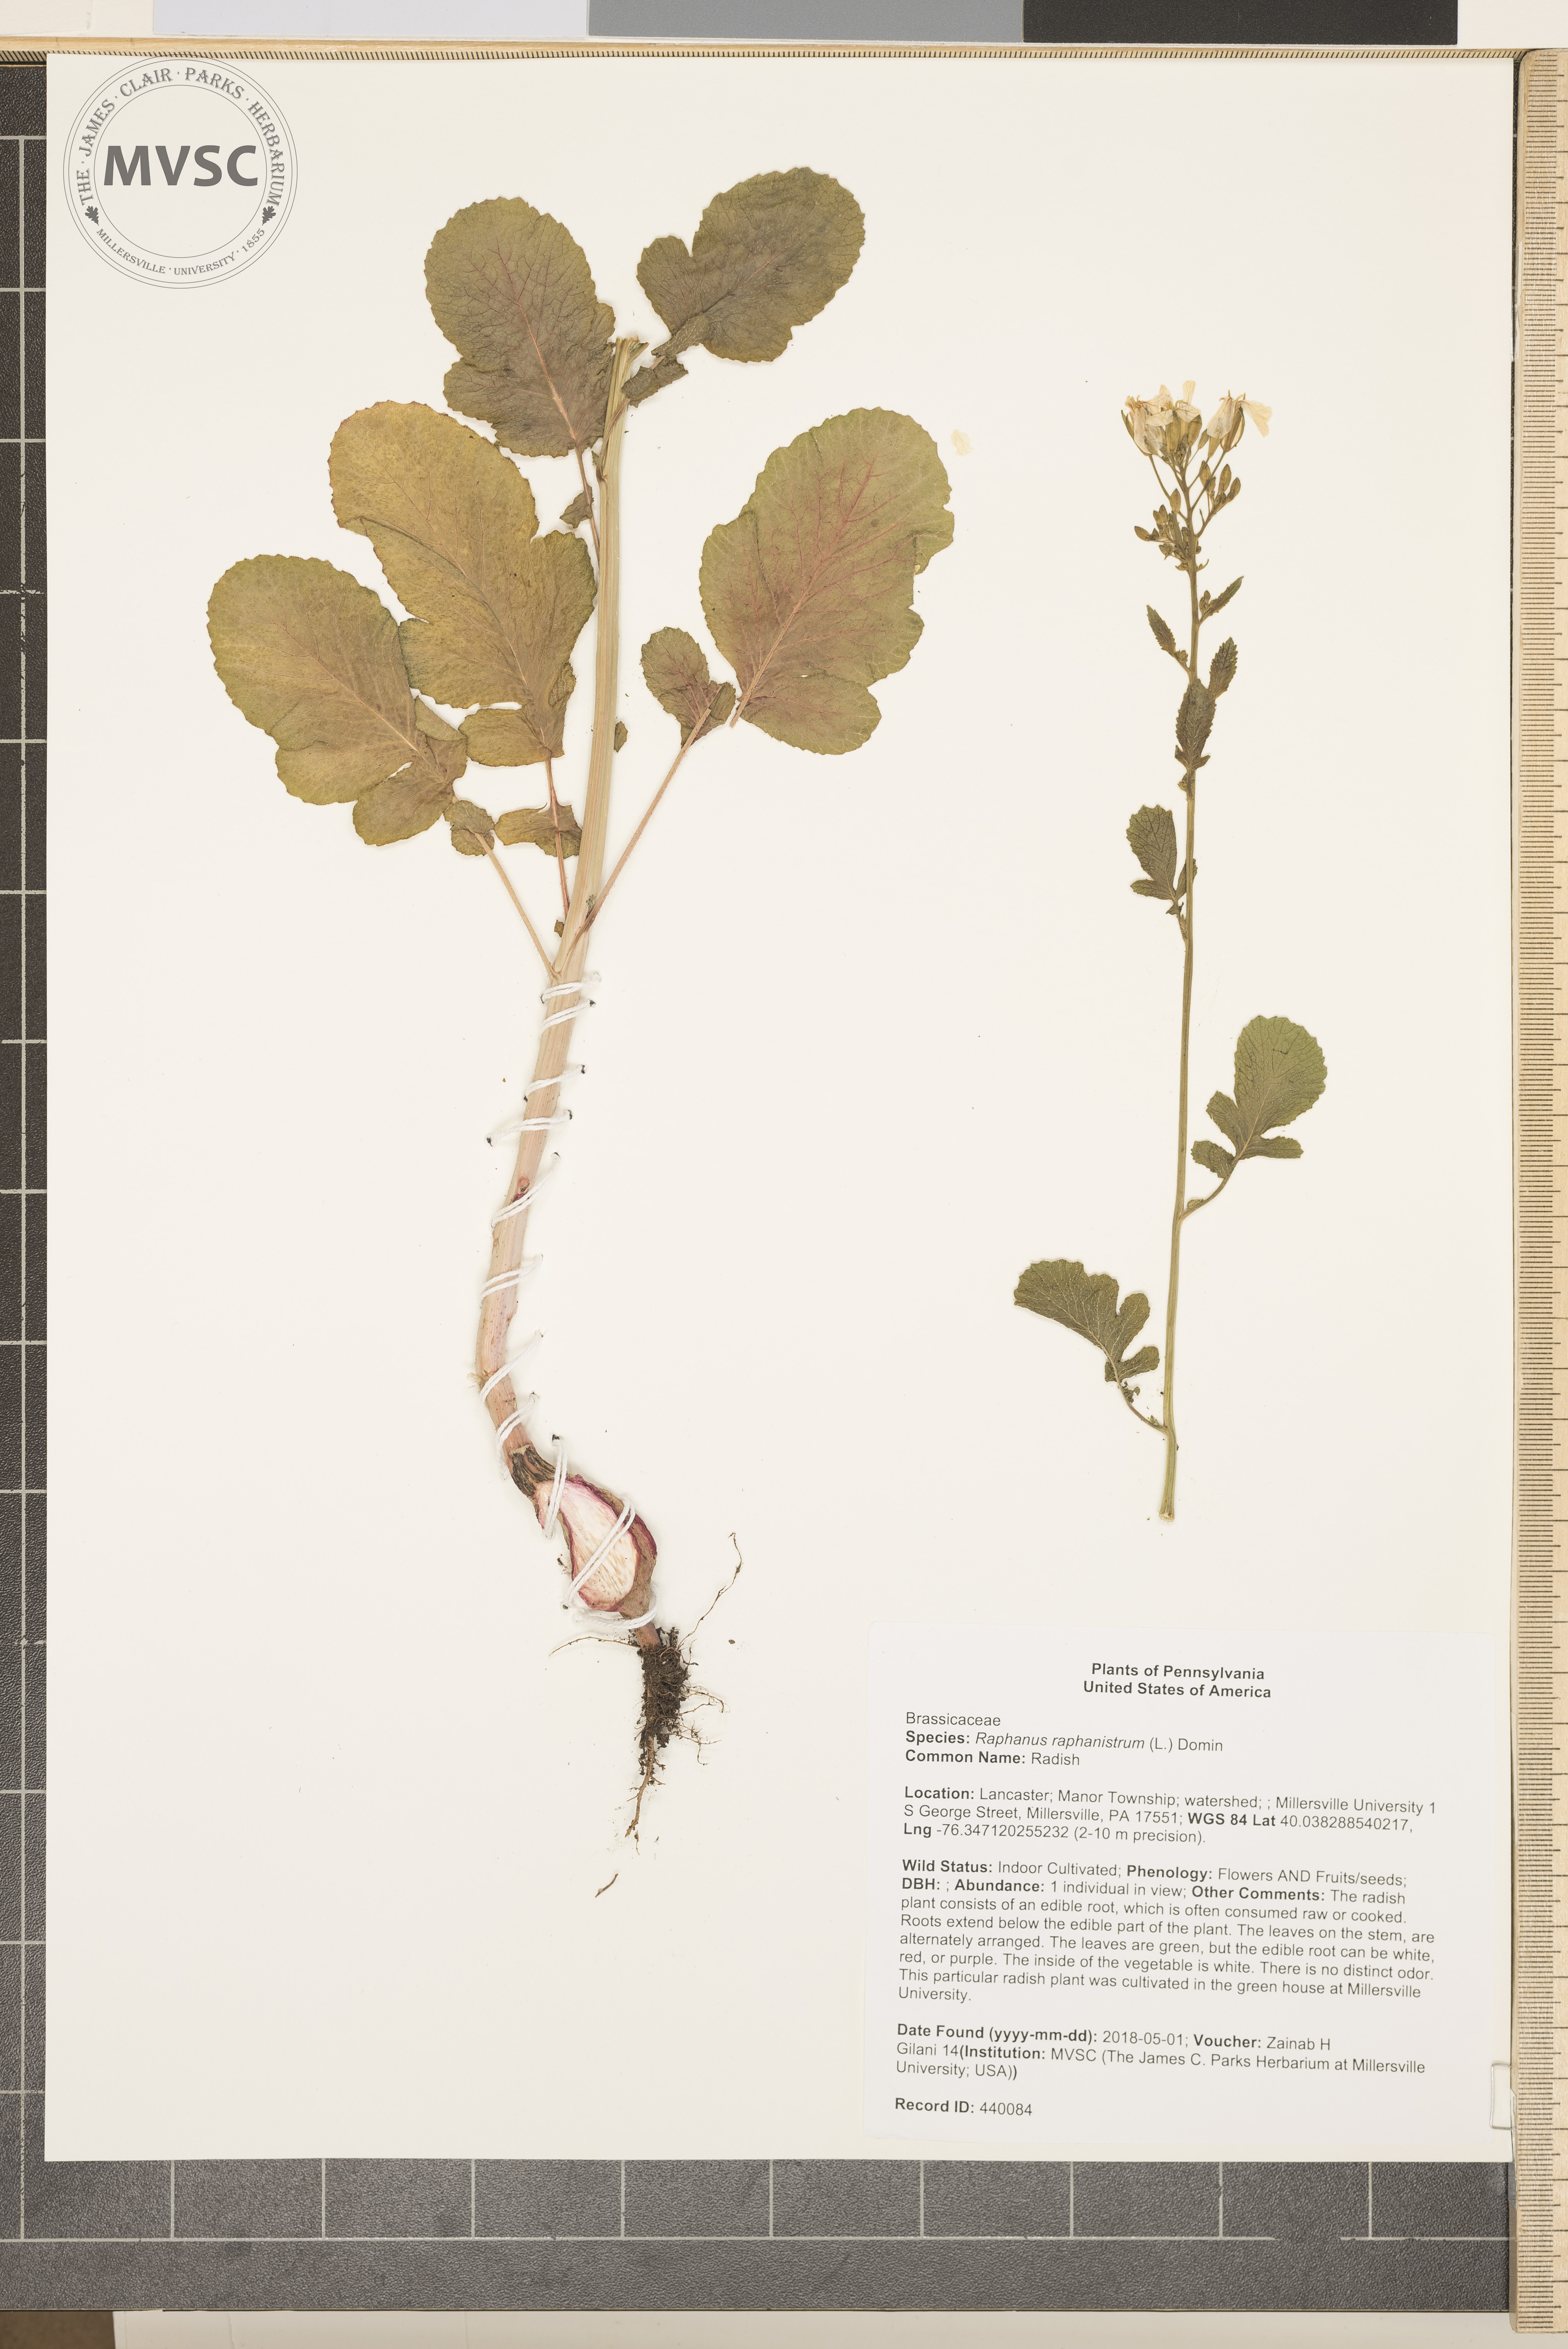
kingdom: Plantae
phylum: Tracheophyta
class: Magnoliopsida
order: Brassicales
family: Brassicaceae
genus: Raphanus
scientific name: Raphanus raphanistrum
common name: Radish
